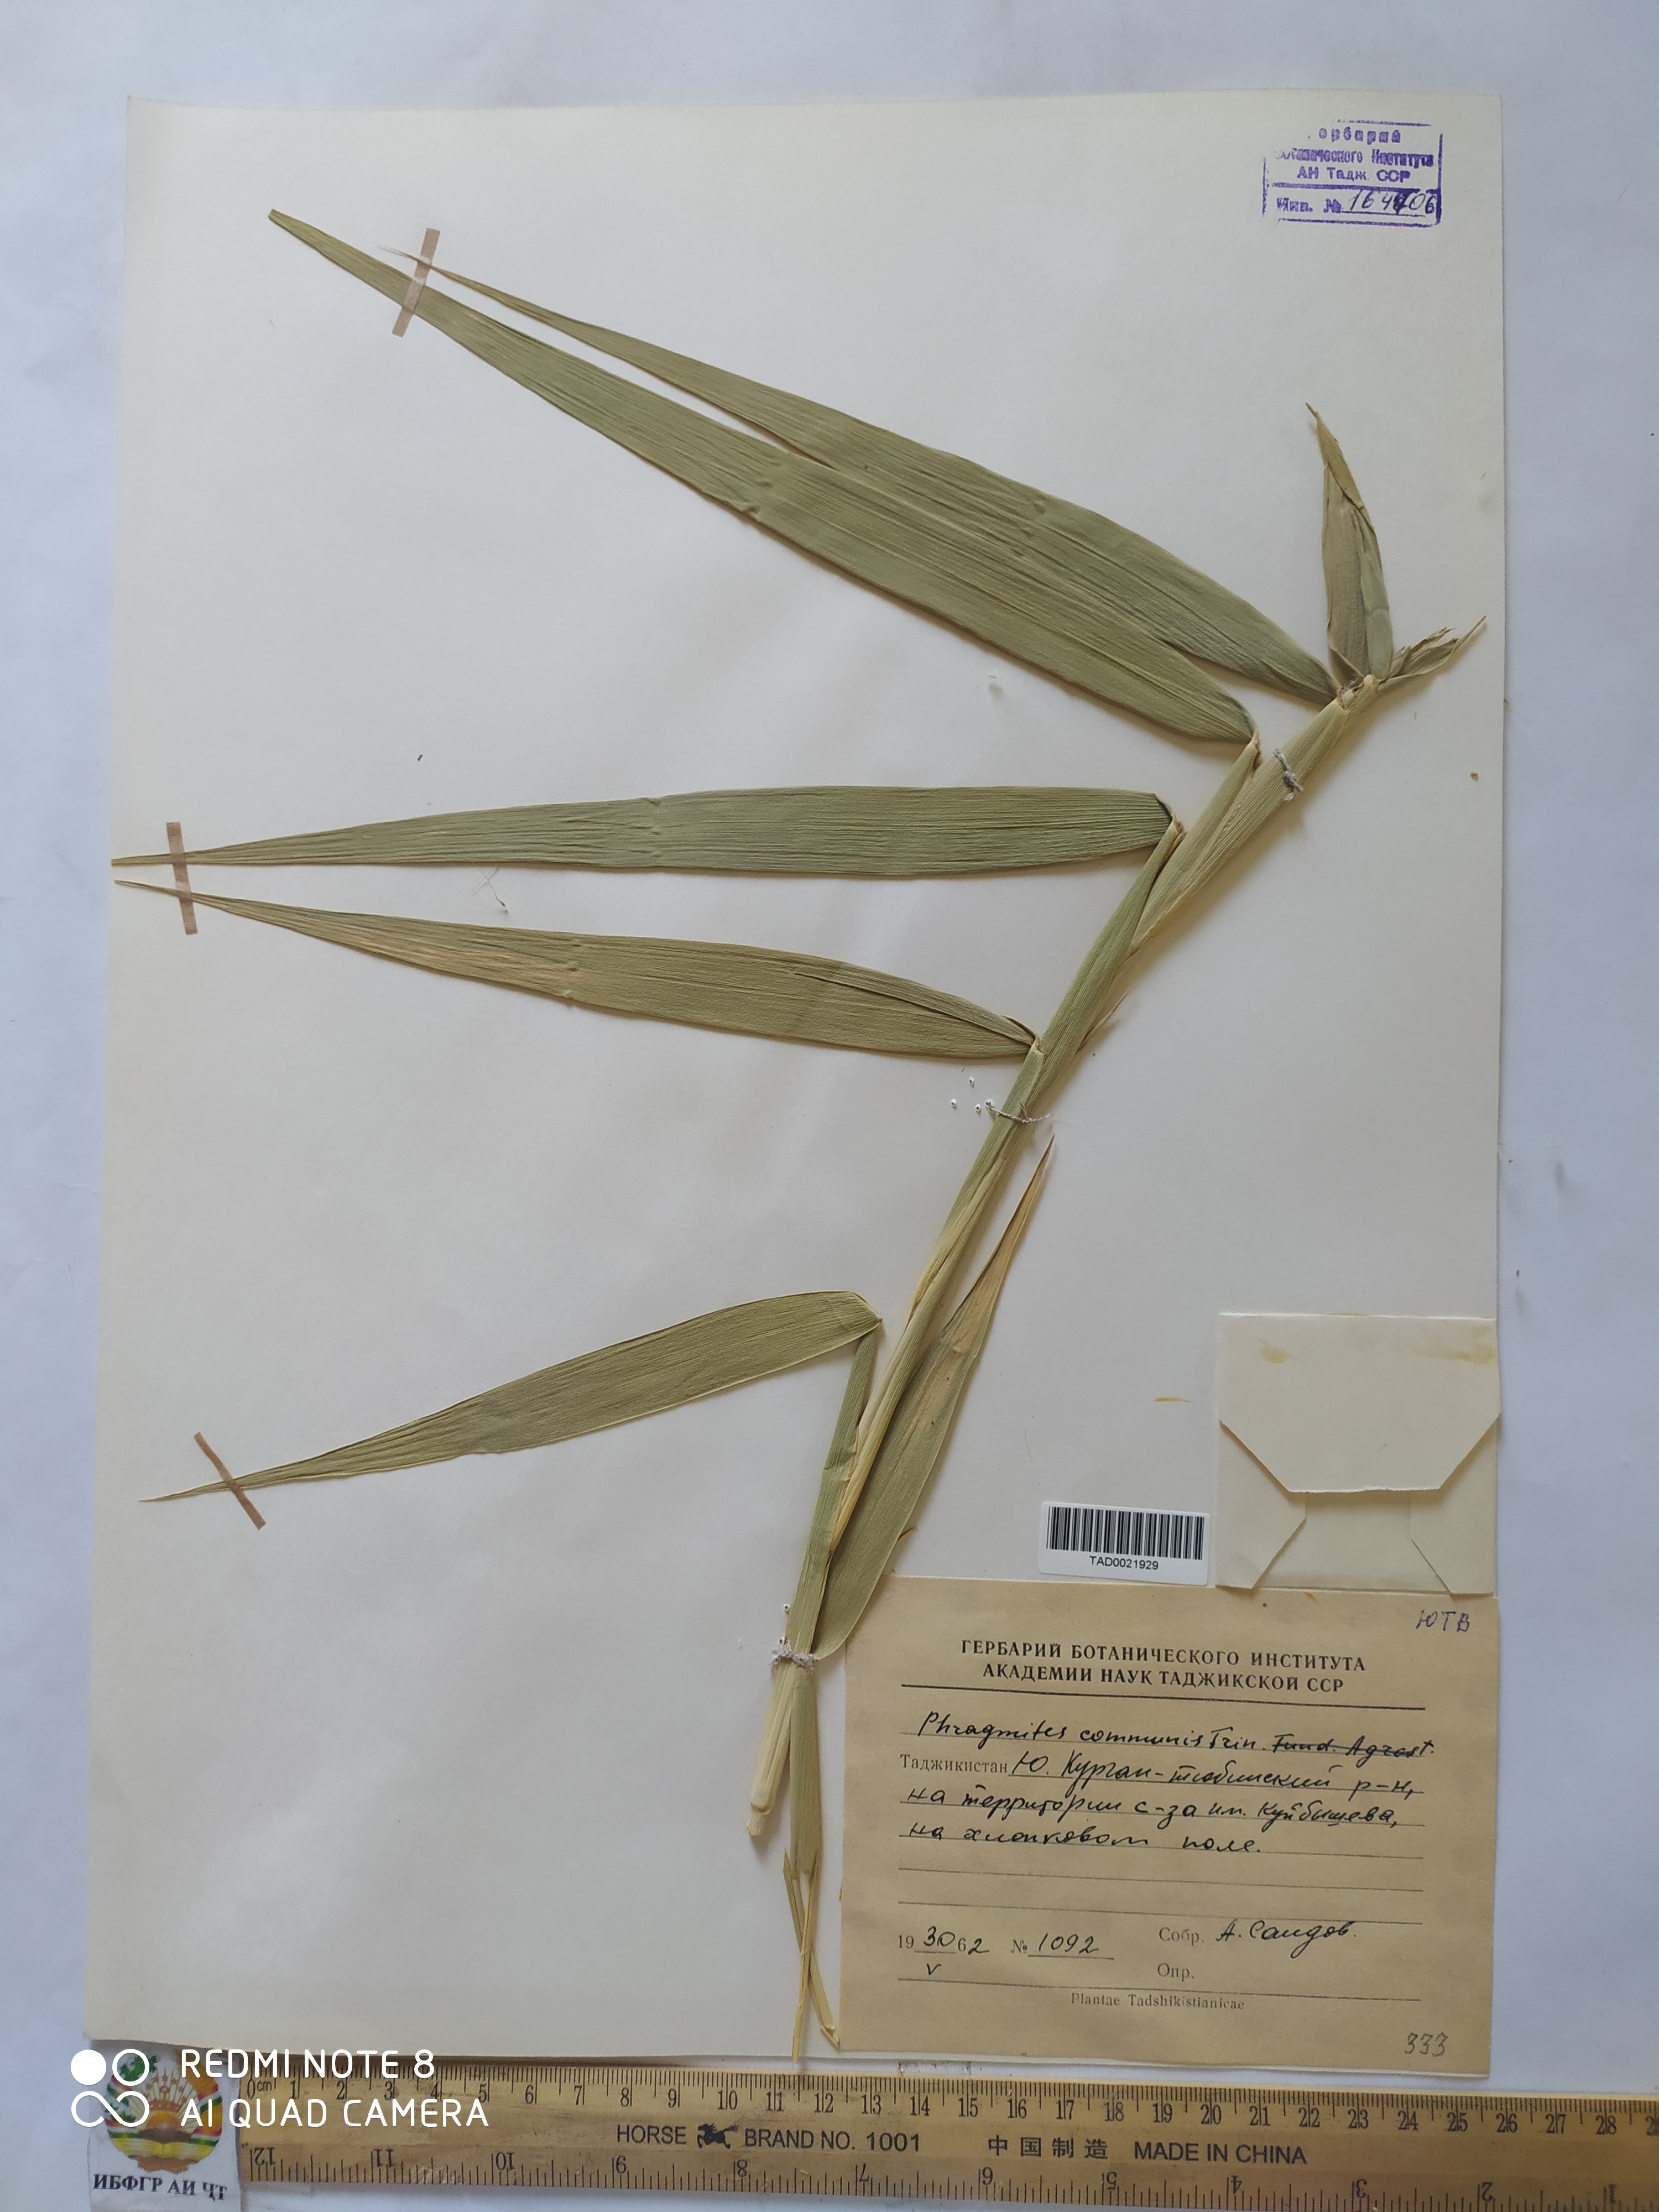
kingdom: Plantae
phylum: Tracheophyta
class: Liliopsida
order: Poales
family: Poaceae
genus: Phragmites
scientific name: Phragmites australis
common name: Common reed
